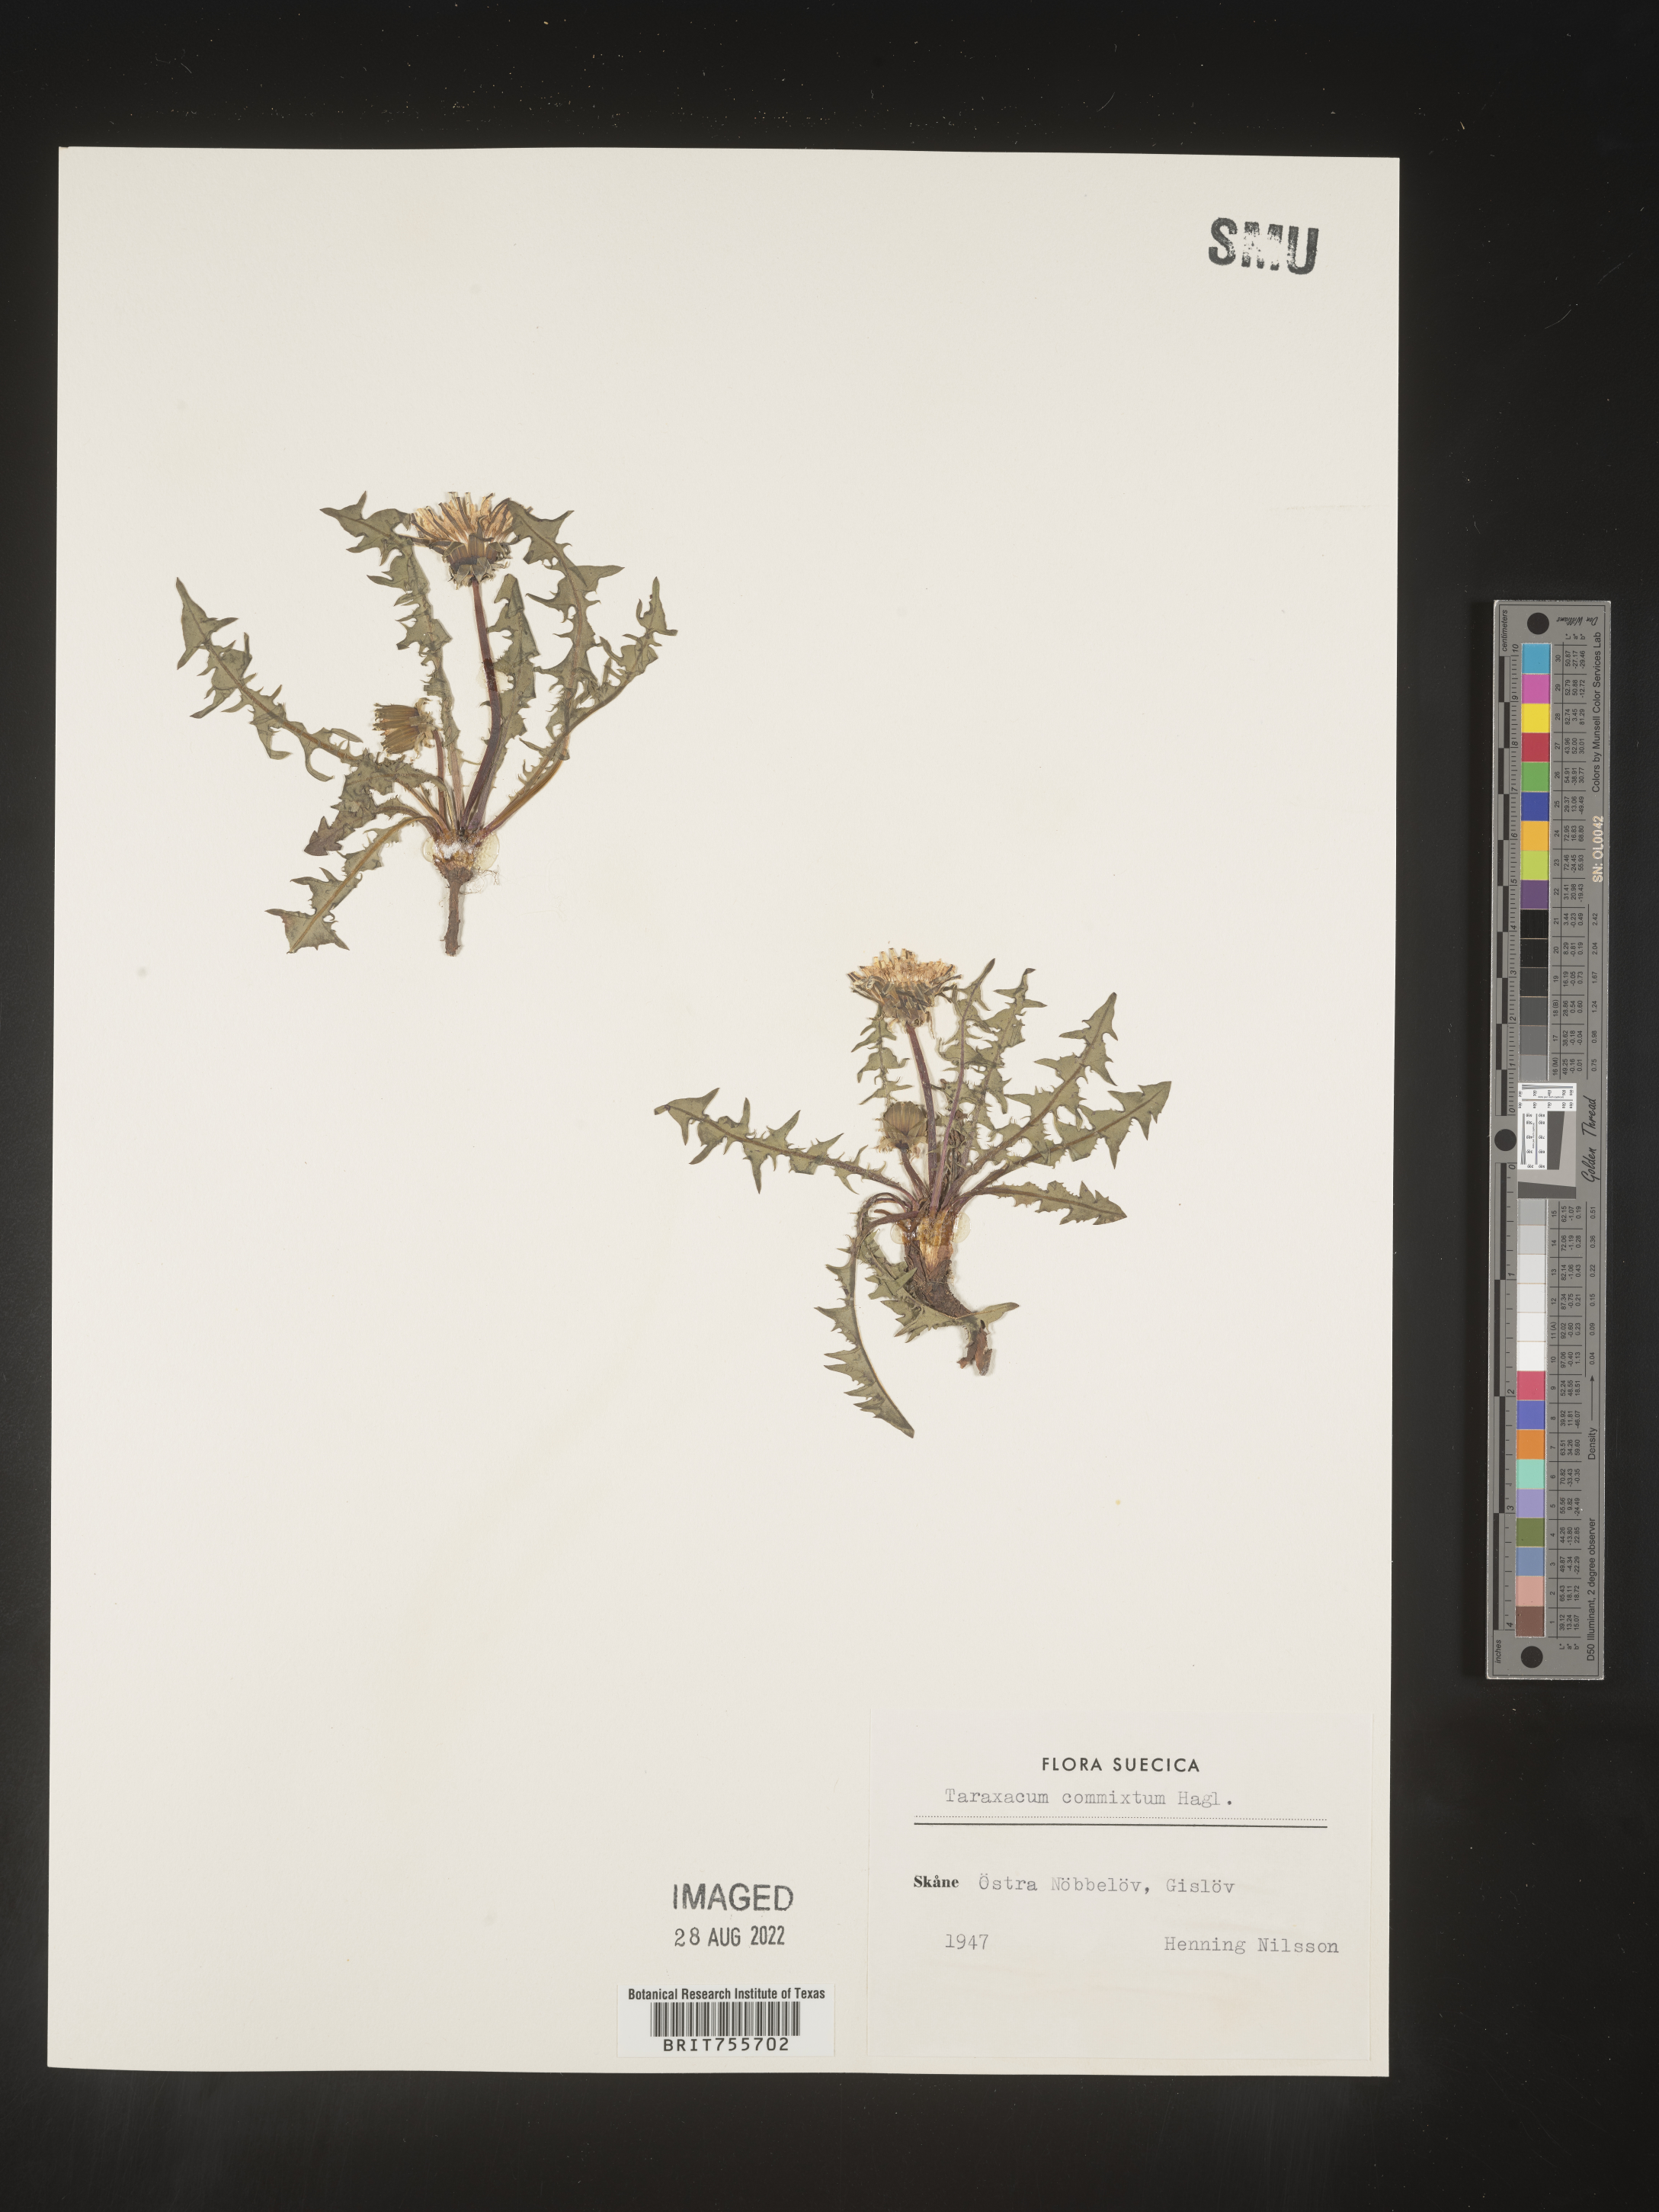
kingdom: Plantae
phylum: Tracheophyta
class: Magnoliopsida
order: Asterales
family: Asteraceae
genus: Taraxacum
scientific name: Taraxacum
